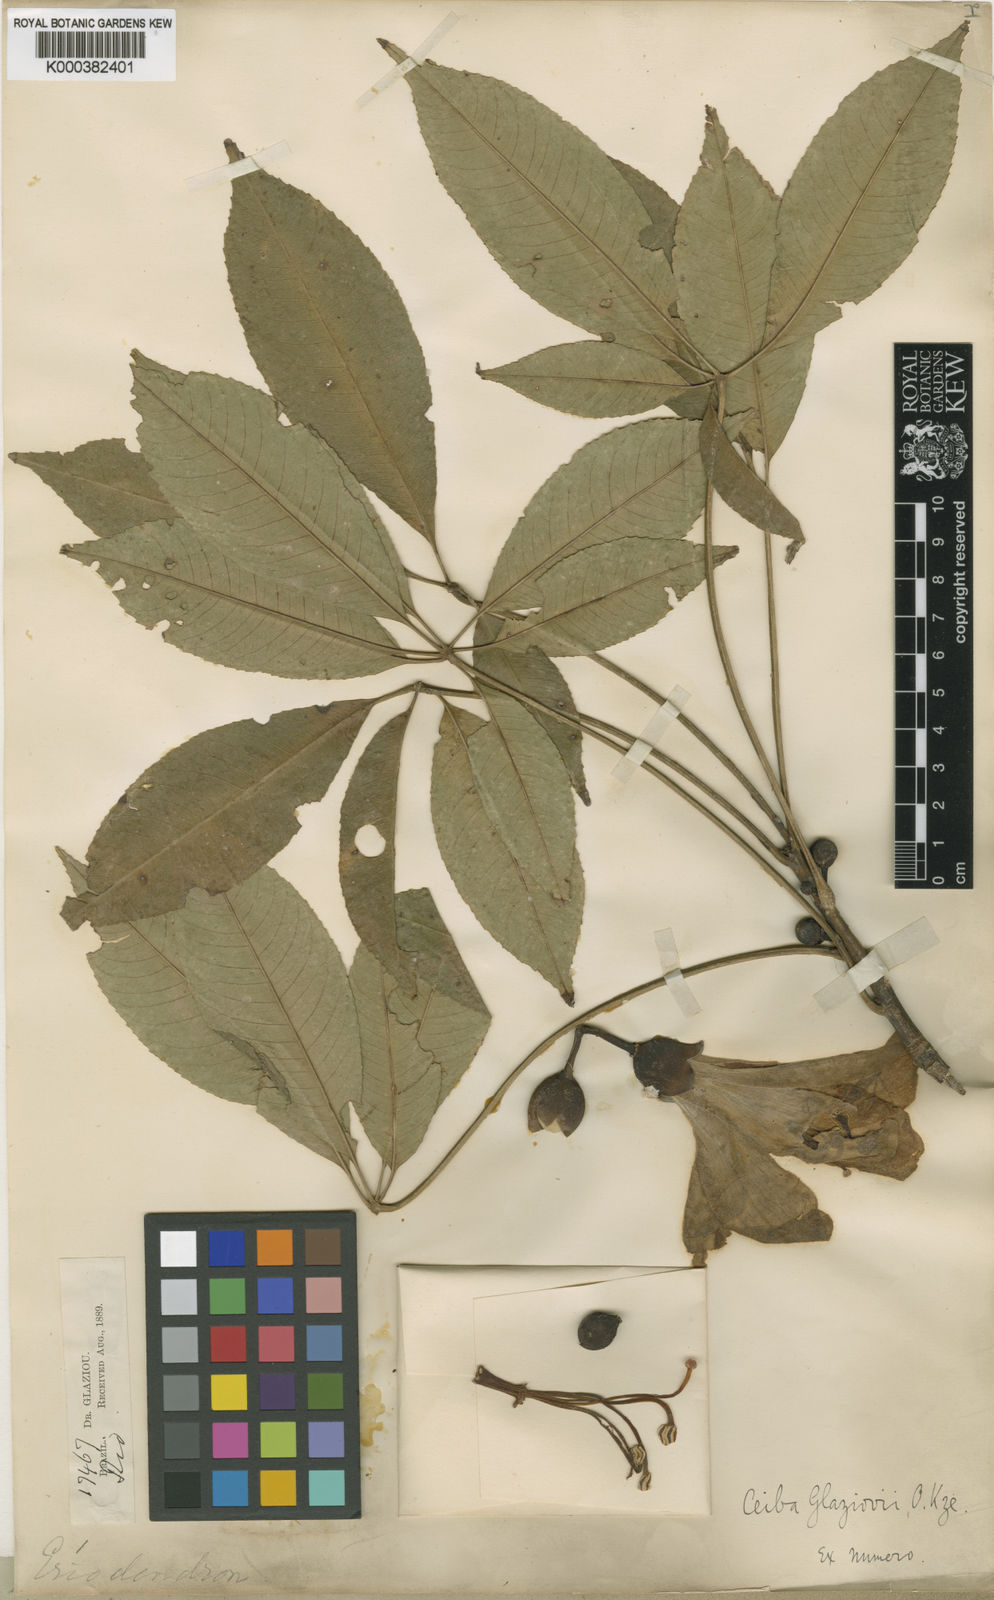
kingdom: Plantae
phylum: Tracheophyta
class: Magnoliopsida
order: Malvales
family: Malvaceae
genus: Ceiba
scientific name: Ceiba pubiflora
